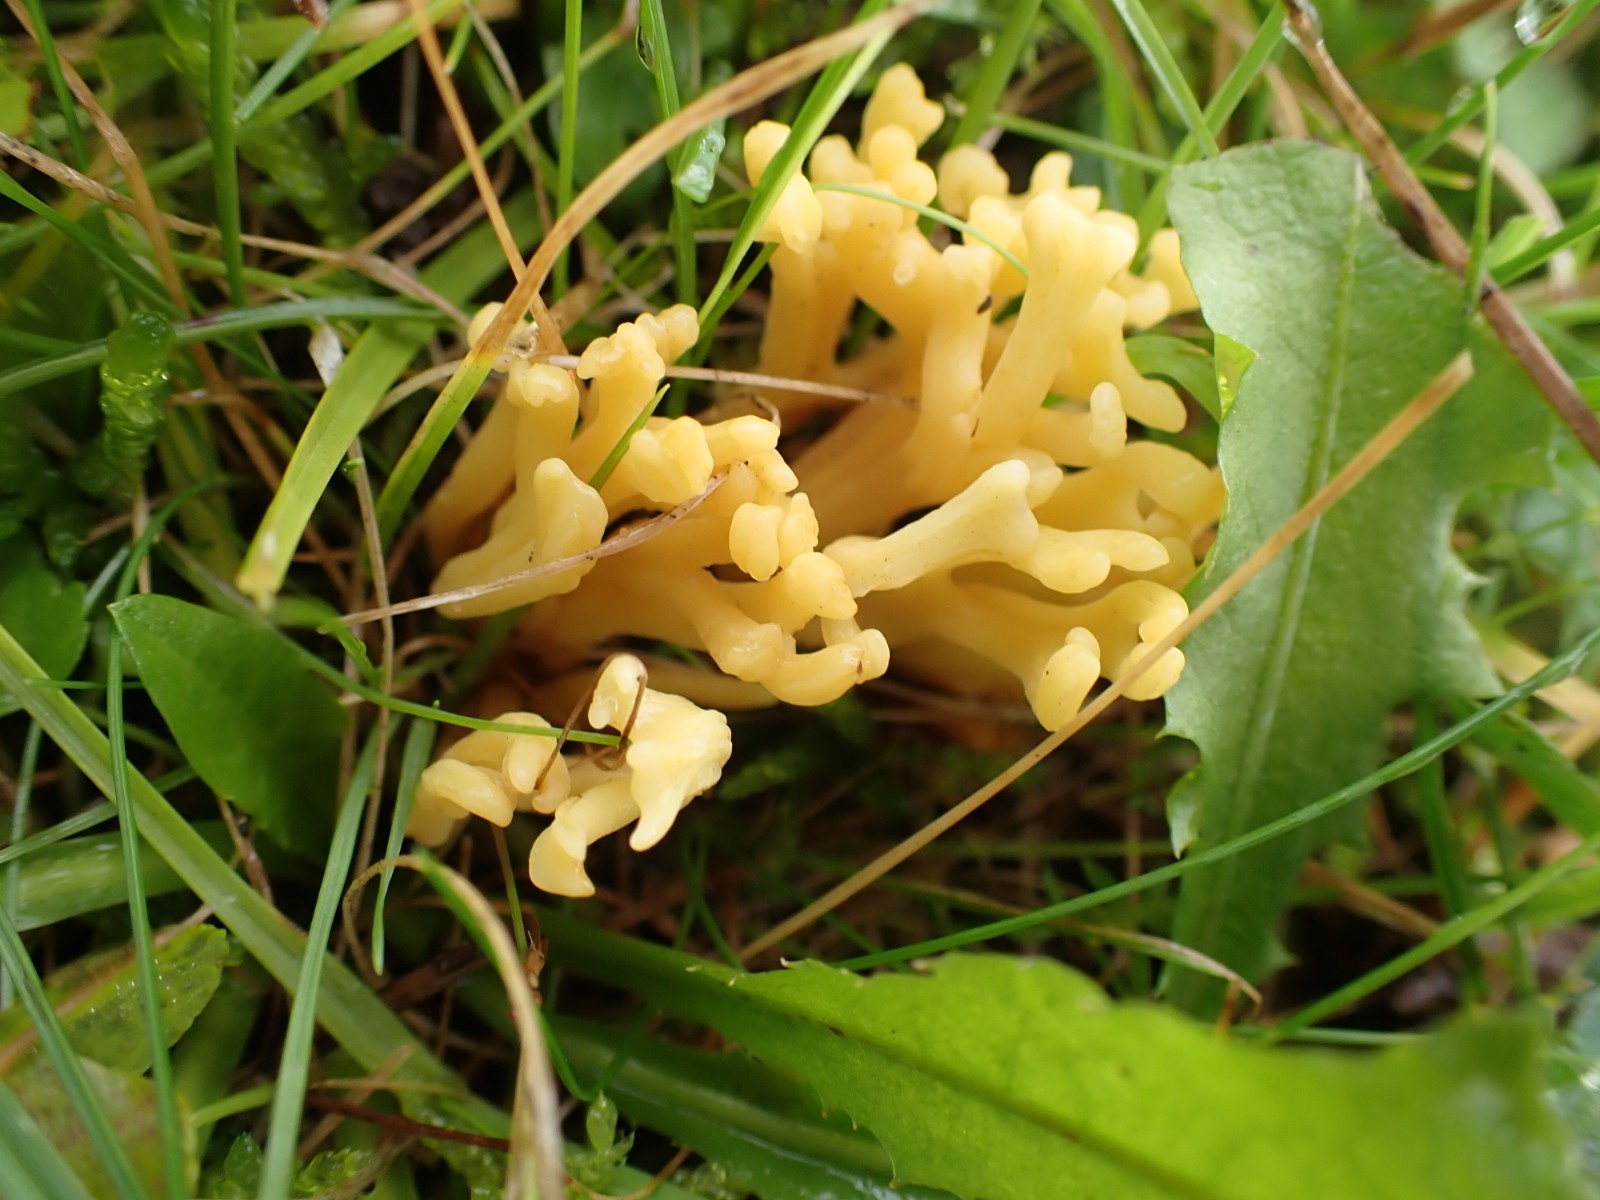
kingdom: Fungi
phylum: Basidiomycota
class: Agaricomycetes
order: Agaricales
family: Clavariaceae
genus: Clavulinopsis
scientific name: Clavulinopsis corniculata
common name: eng-køllesvamp
